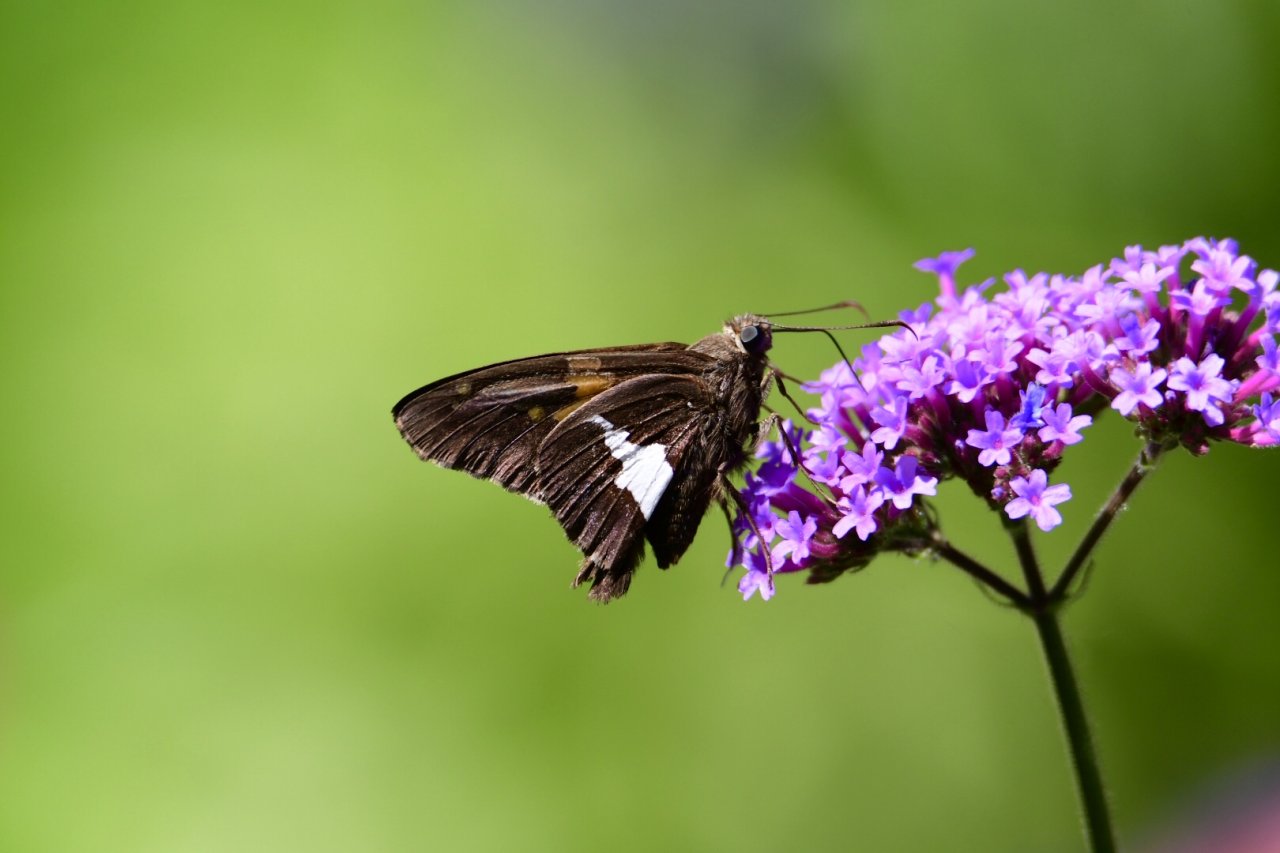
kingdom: Animalia
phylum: Arthropoda
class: Insecta
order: Lepidoptera
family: Hesperiidae
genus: Epargyreus
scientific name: Epargyreus clarus
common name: Silver-spotted Skipper
